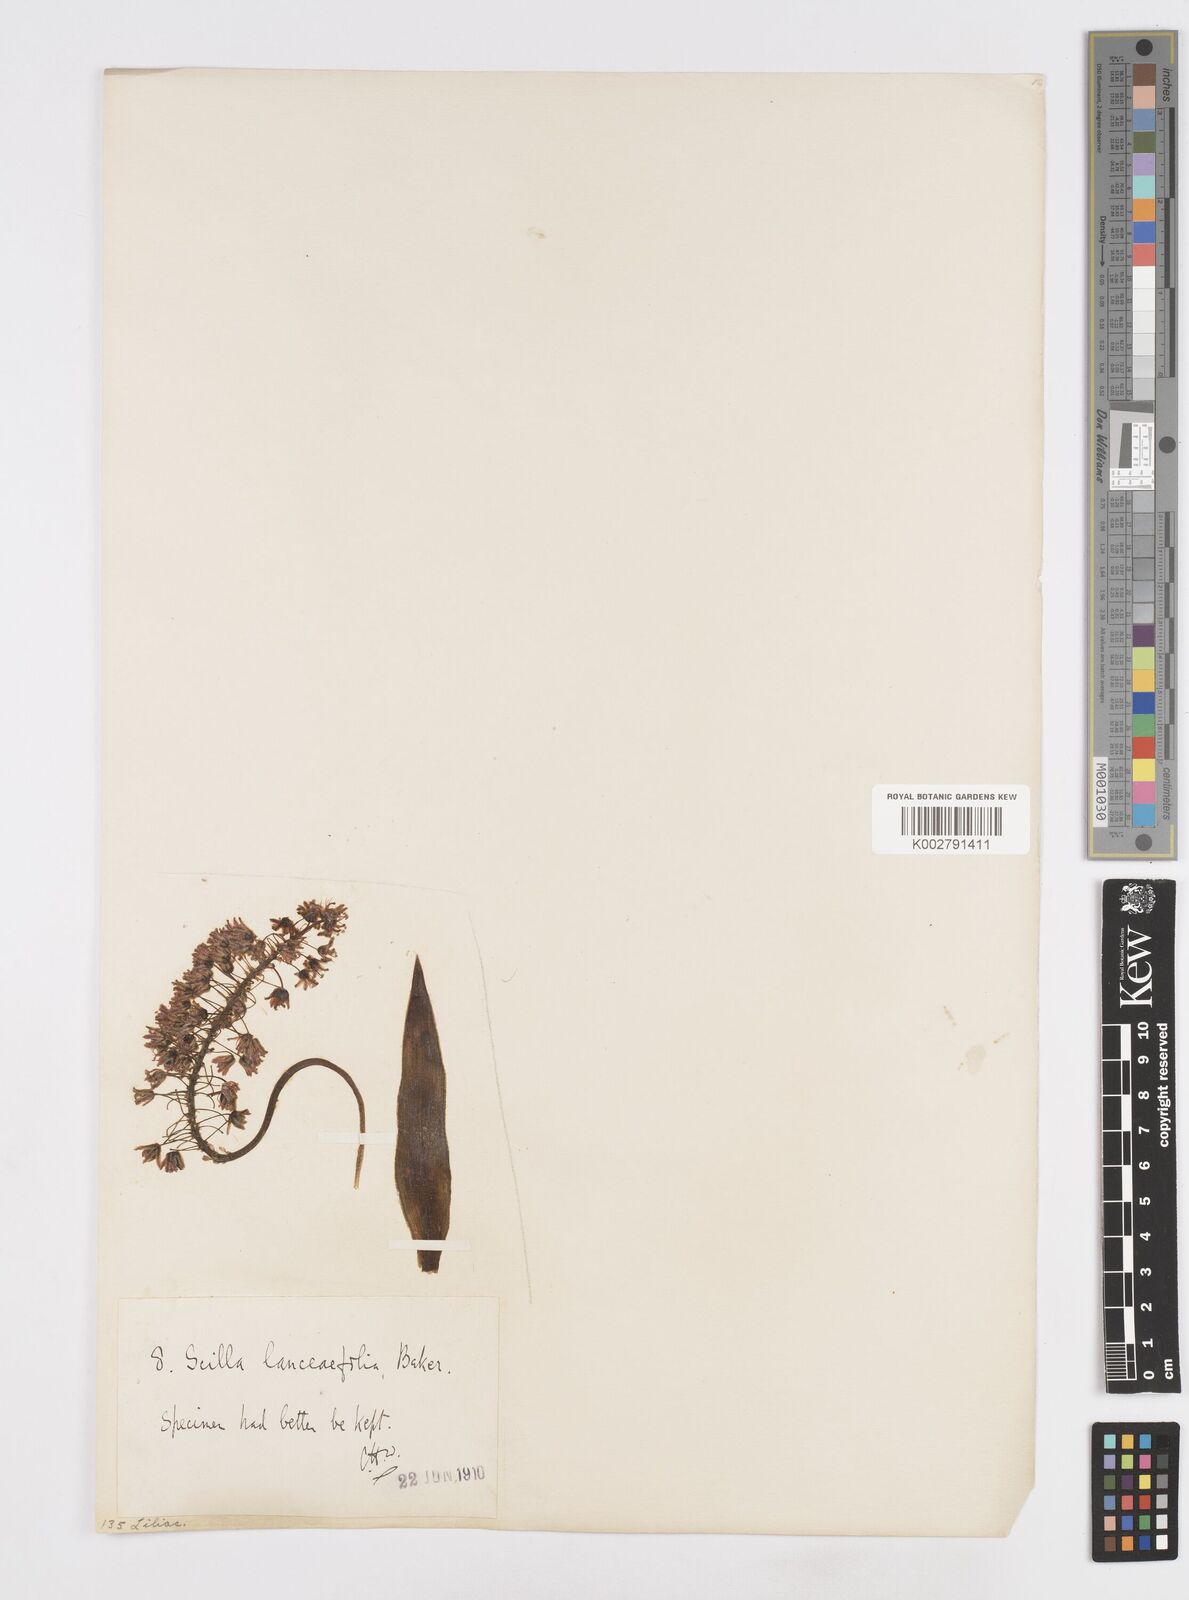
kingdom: Plantae
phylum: Tracheophyta
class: Liliopsida
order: Asparagales
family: Asparagaceae
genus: Ledebouria
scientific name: Ledebouria revoluta
